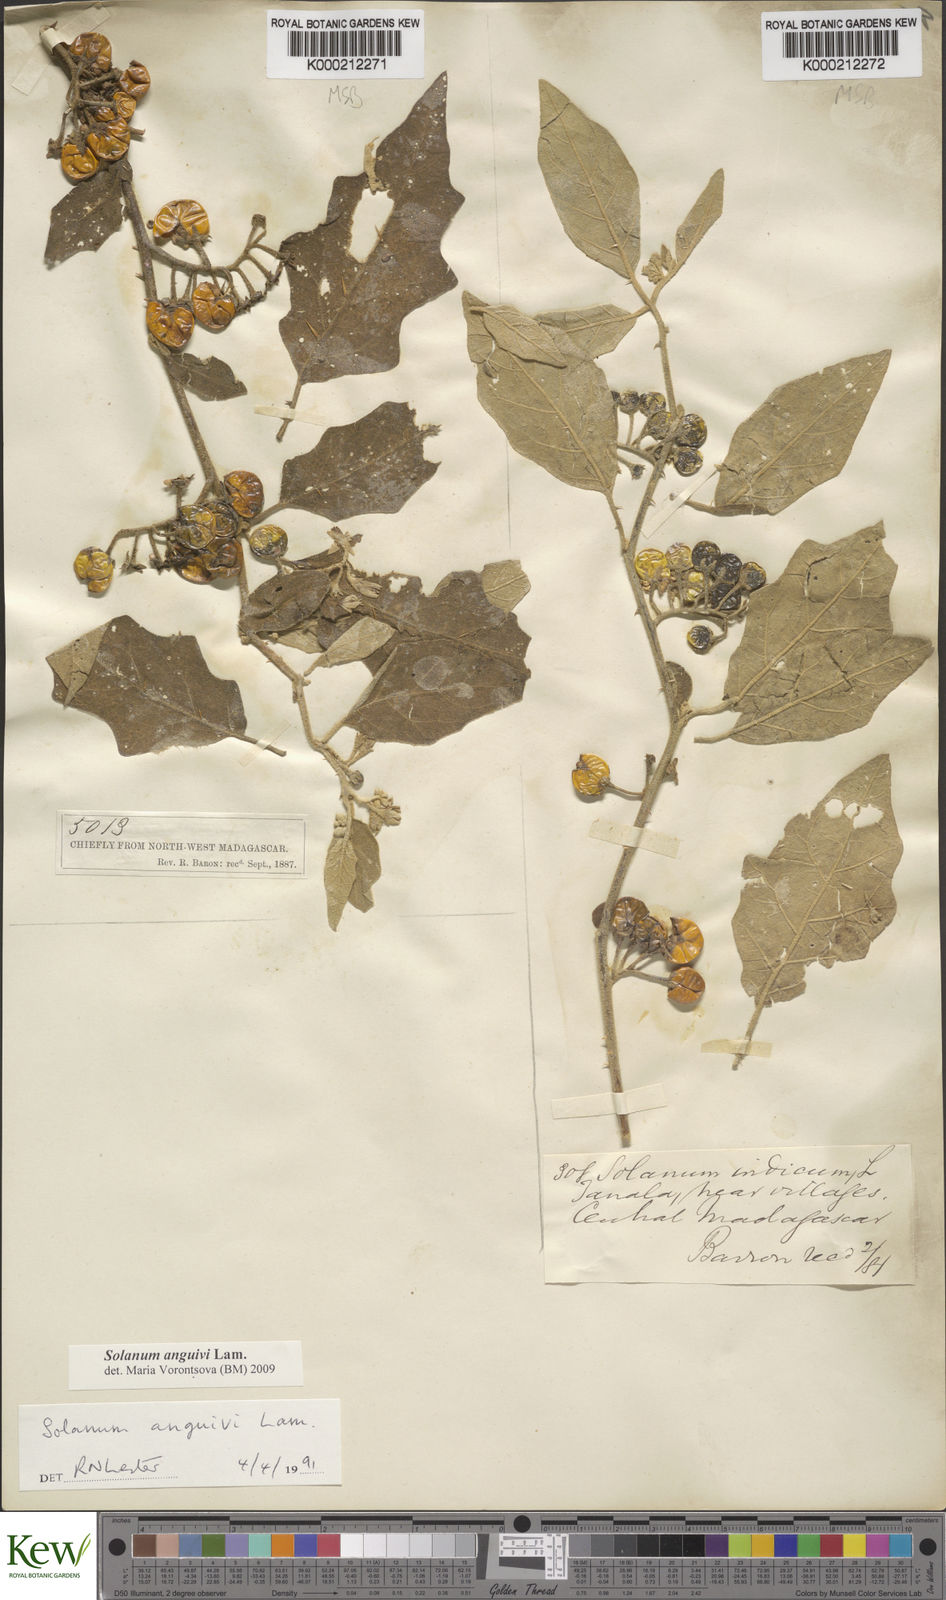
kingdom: Plantae
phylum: Tracheophyta
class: Magnoliopsida
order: Solanales
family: Solanaceae
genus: Solanum
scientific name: Solanum anguivi
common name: Forest bitterberry
